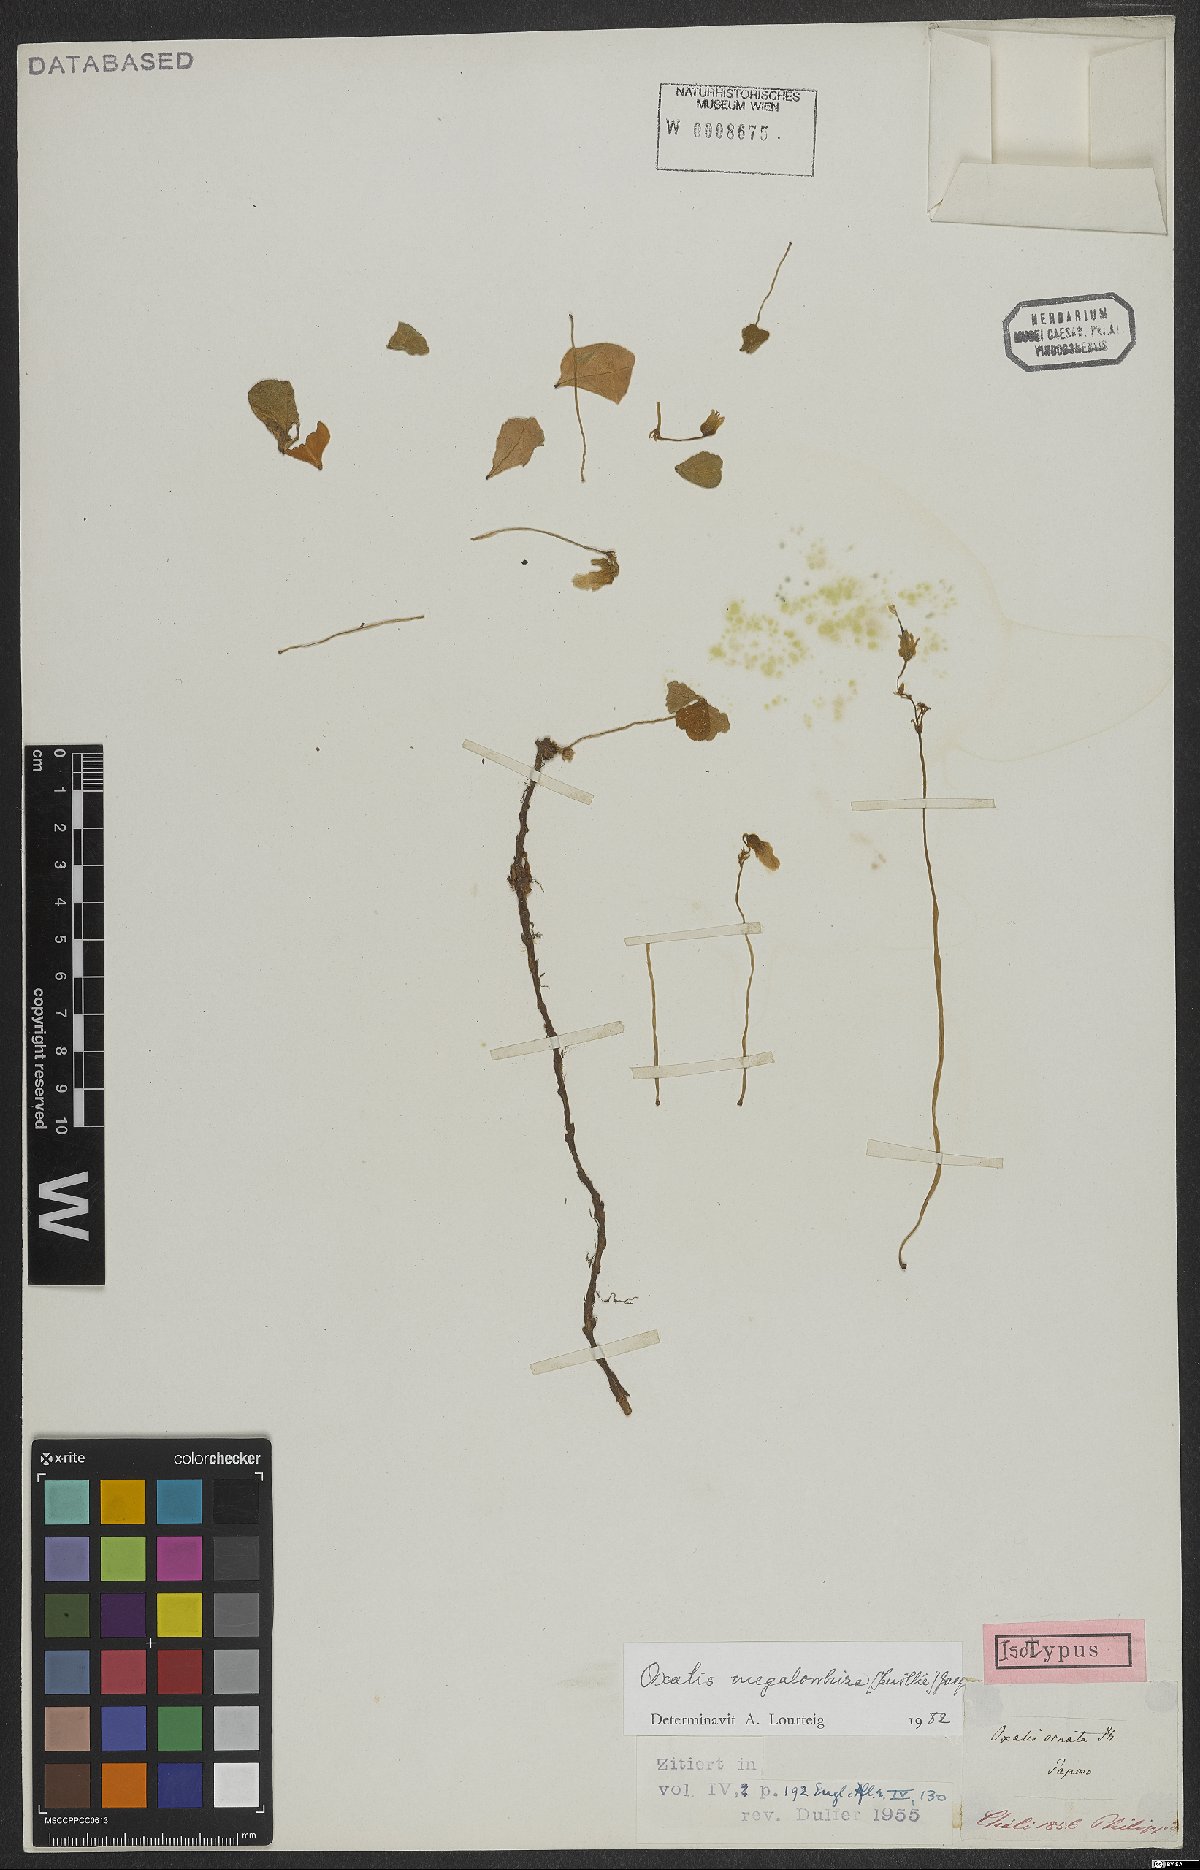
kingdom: Plantae
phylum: Tracheophyta
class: Magnoliopsida
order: Oxalidales
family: Oxalidaceae
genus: Oxalis
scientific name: Oxalis megalorrhiza
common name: Fleshy yellow-sorrel
